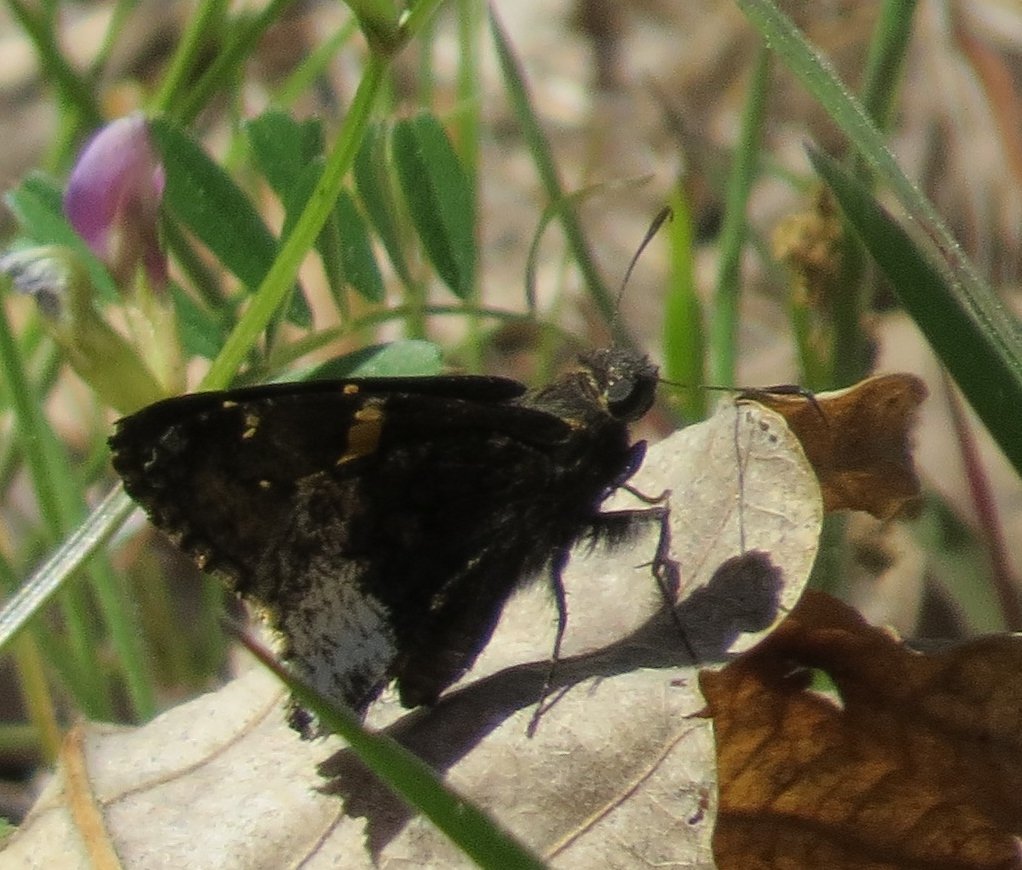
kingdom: Animalia
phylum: Arthropoda
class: Insecta
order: Lepidoptera
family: Hesperiidae
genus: Achalarus
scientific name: Achalarus lyciades
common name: Hoary Edge
